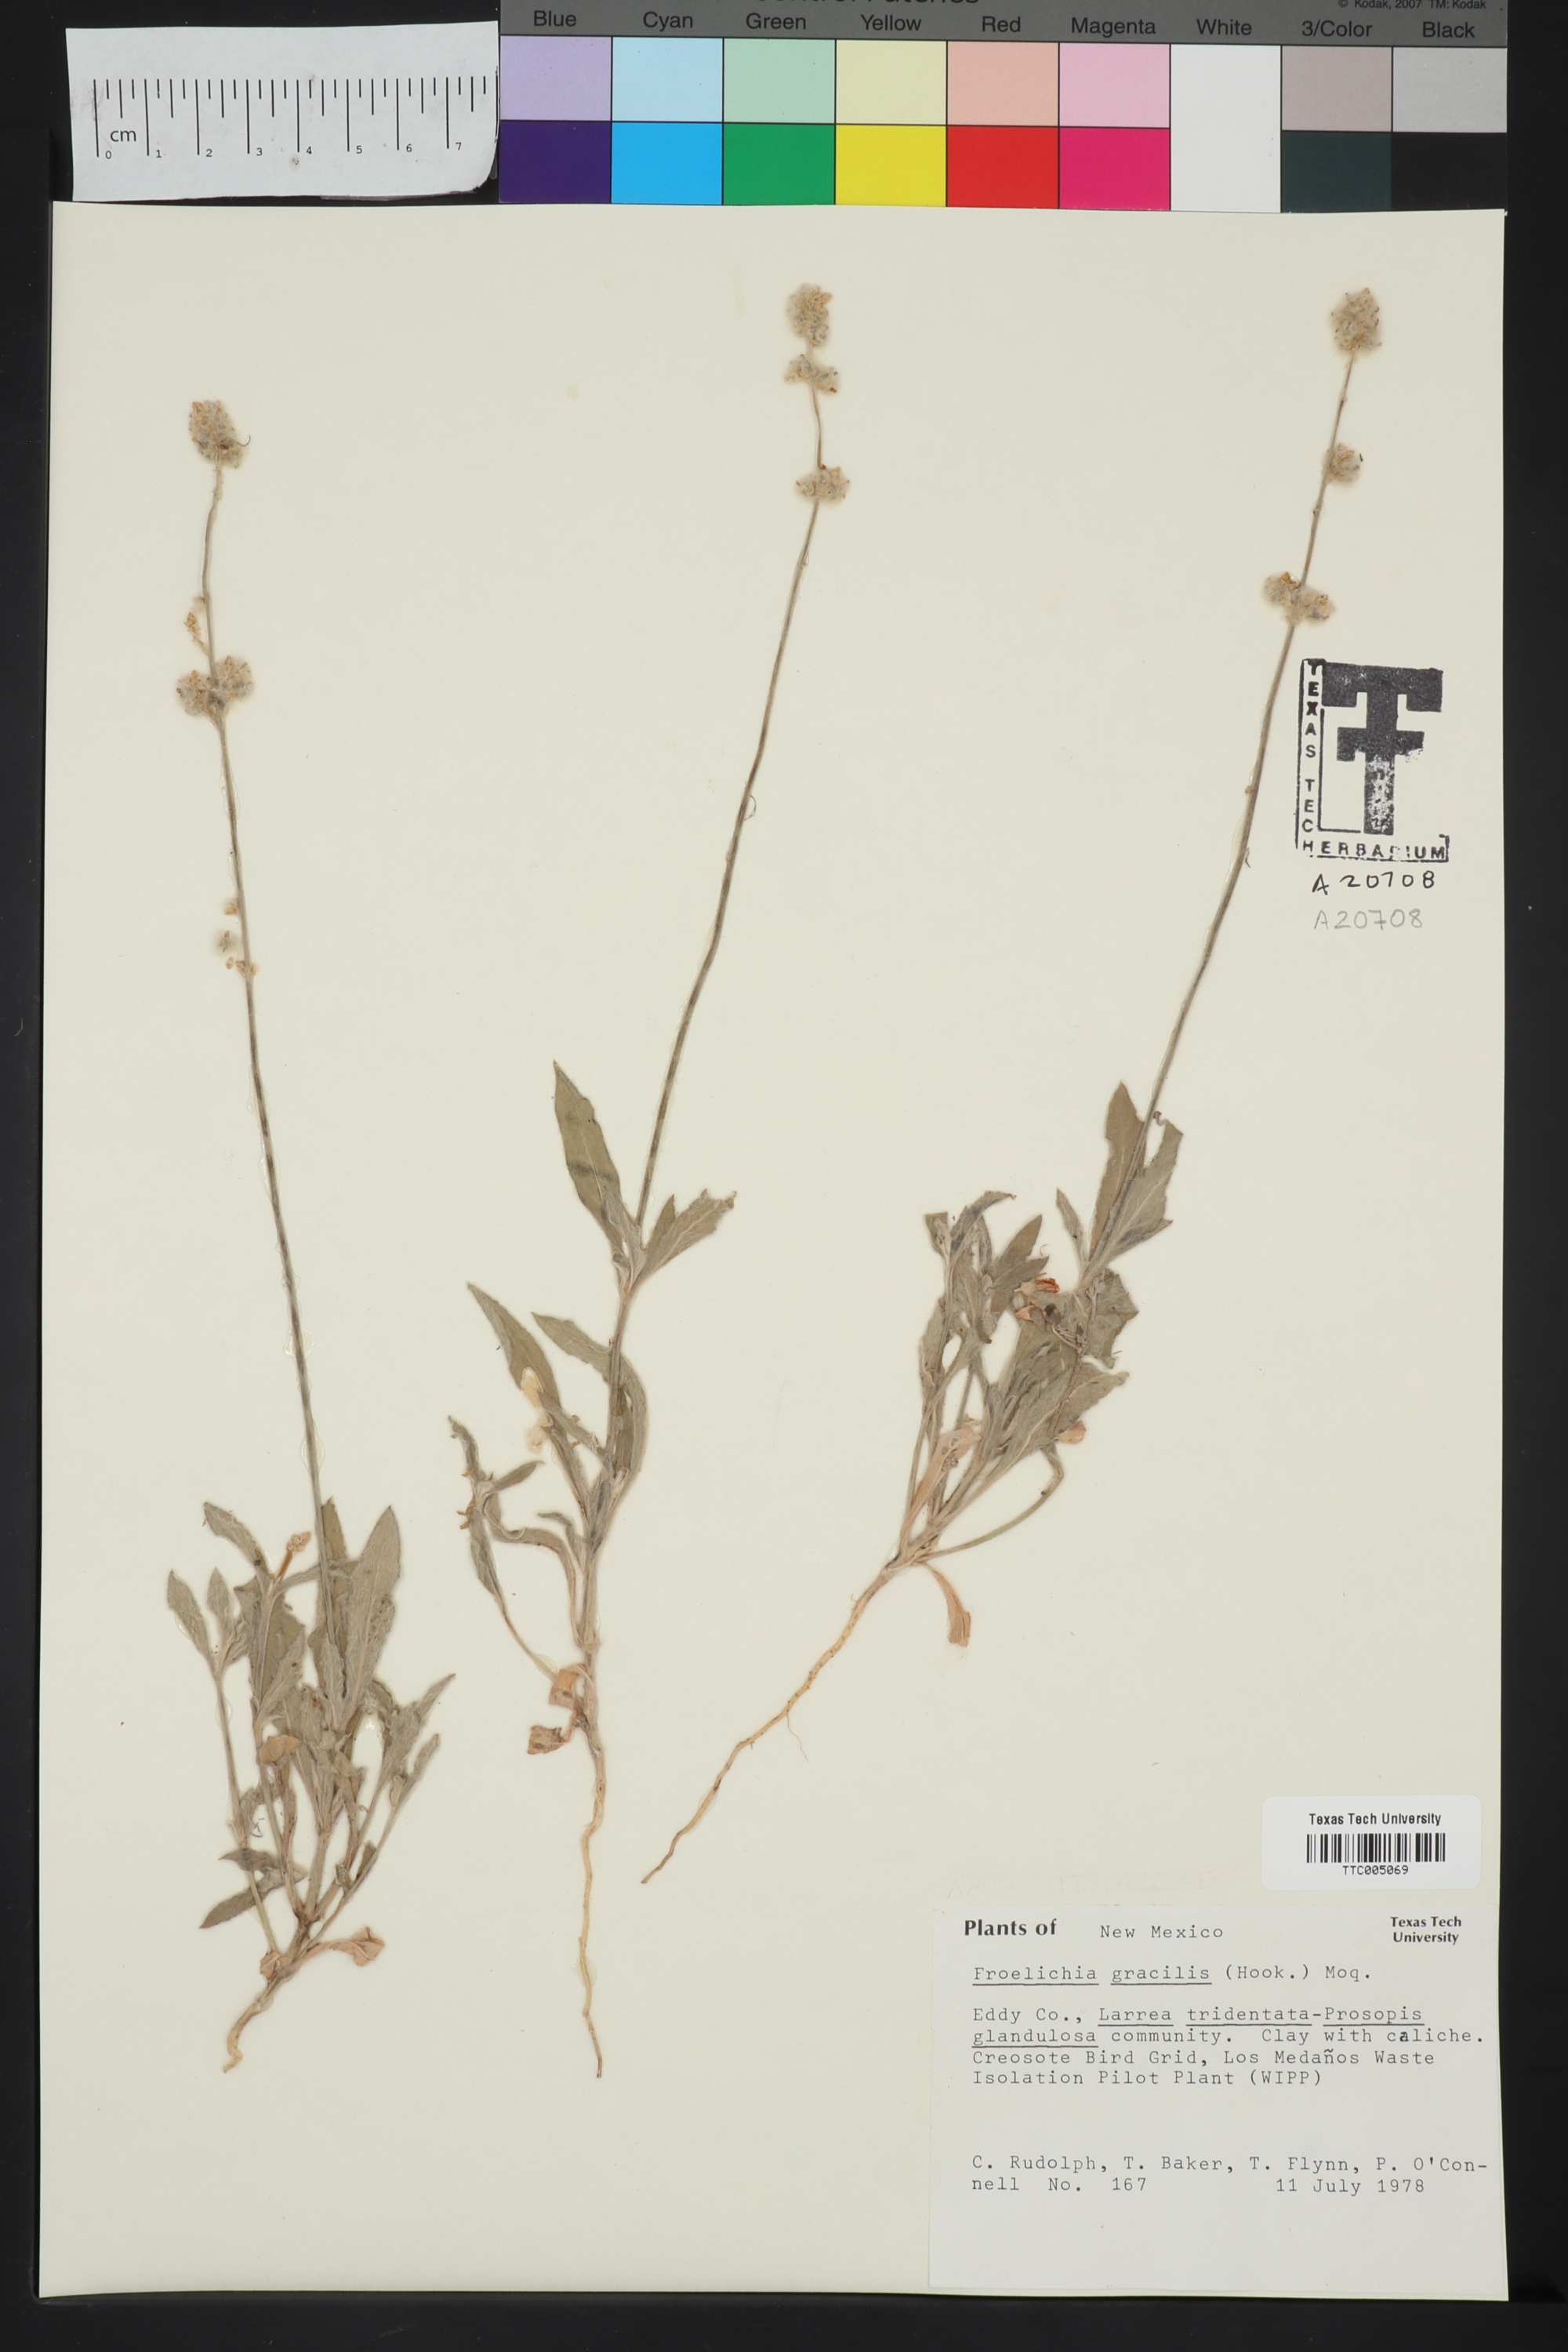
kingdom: Plantae
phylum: Tracheophyta
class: Magnoliopsida
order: Caryophyllales
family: Amaranthaceae
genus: Froelichia
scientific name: Froelichia gracilis
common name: Slender cottonweed
